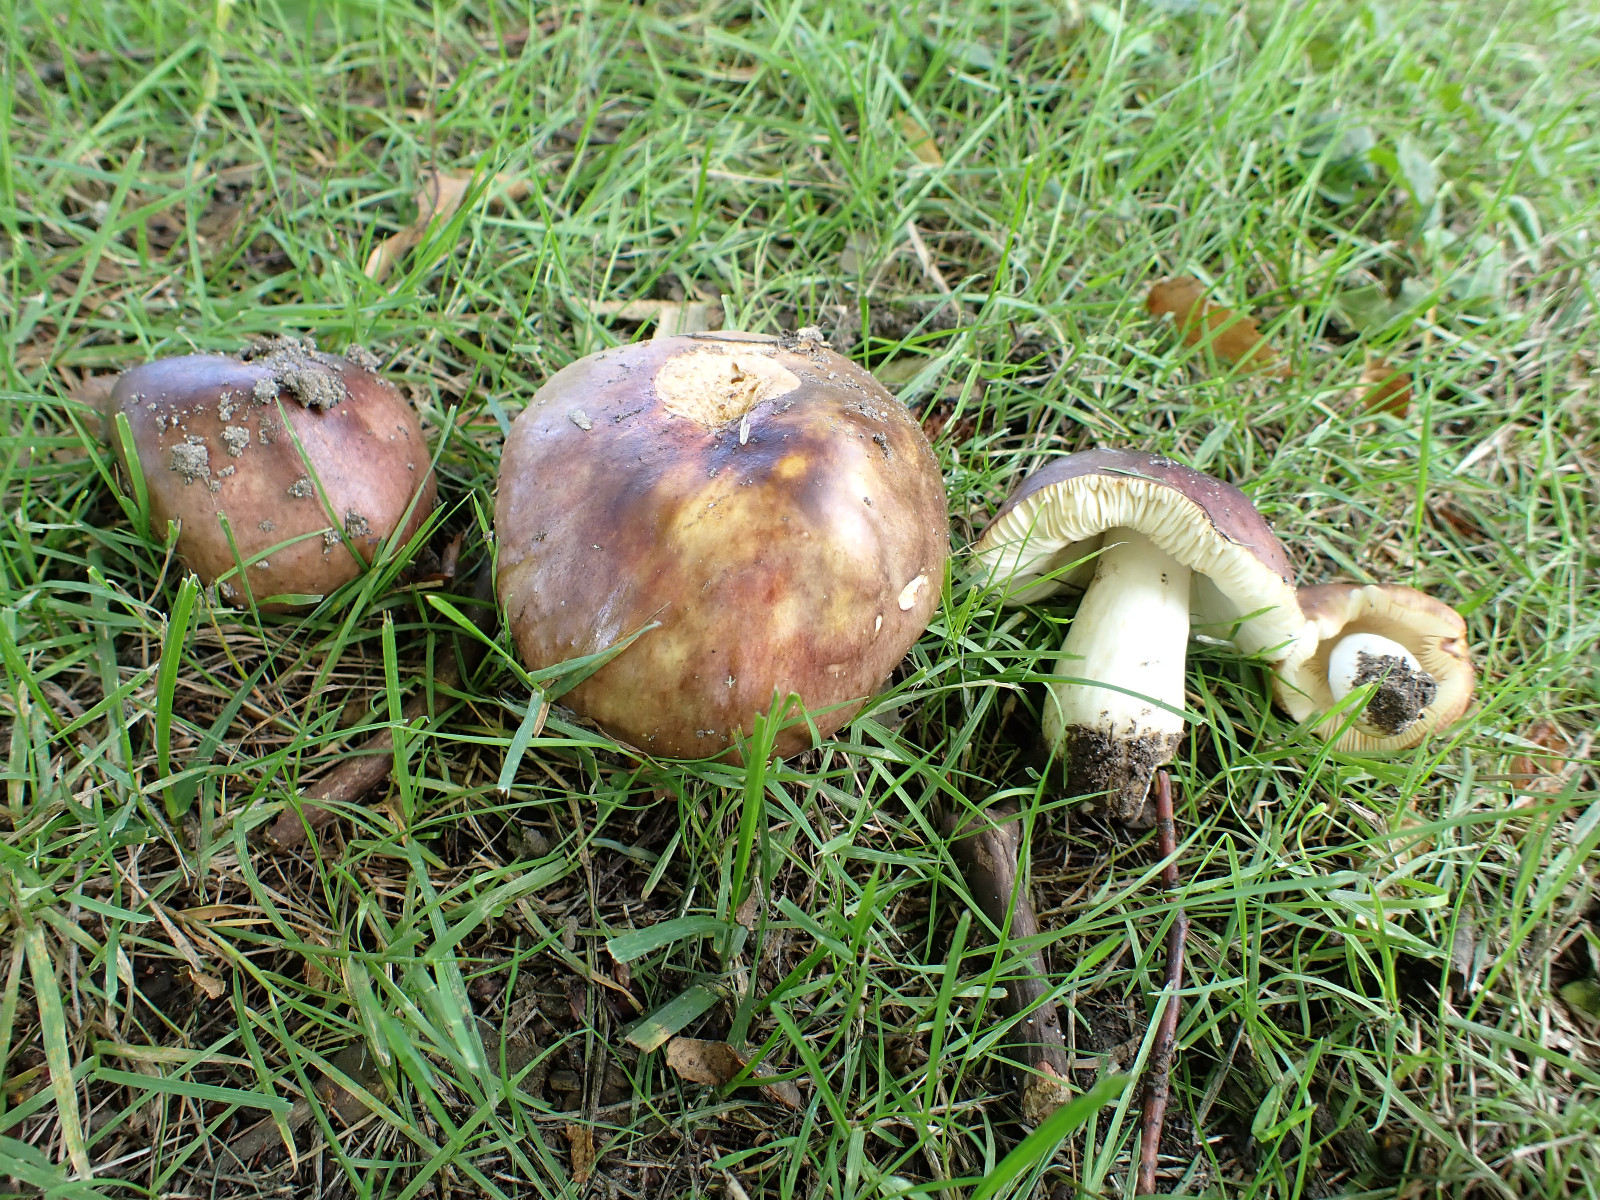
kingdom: Fungi
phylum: Basidiomycota
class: Agaricomycetes
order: Russulales
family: Russulaceae
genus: Russula
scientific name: Russula cyanoxantha
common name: broget skørhat
